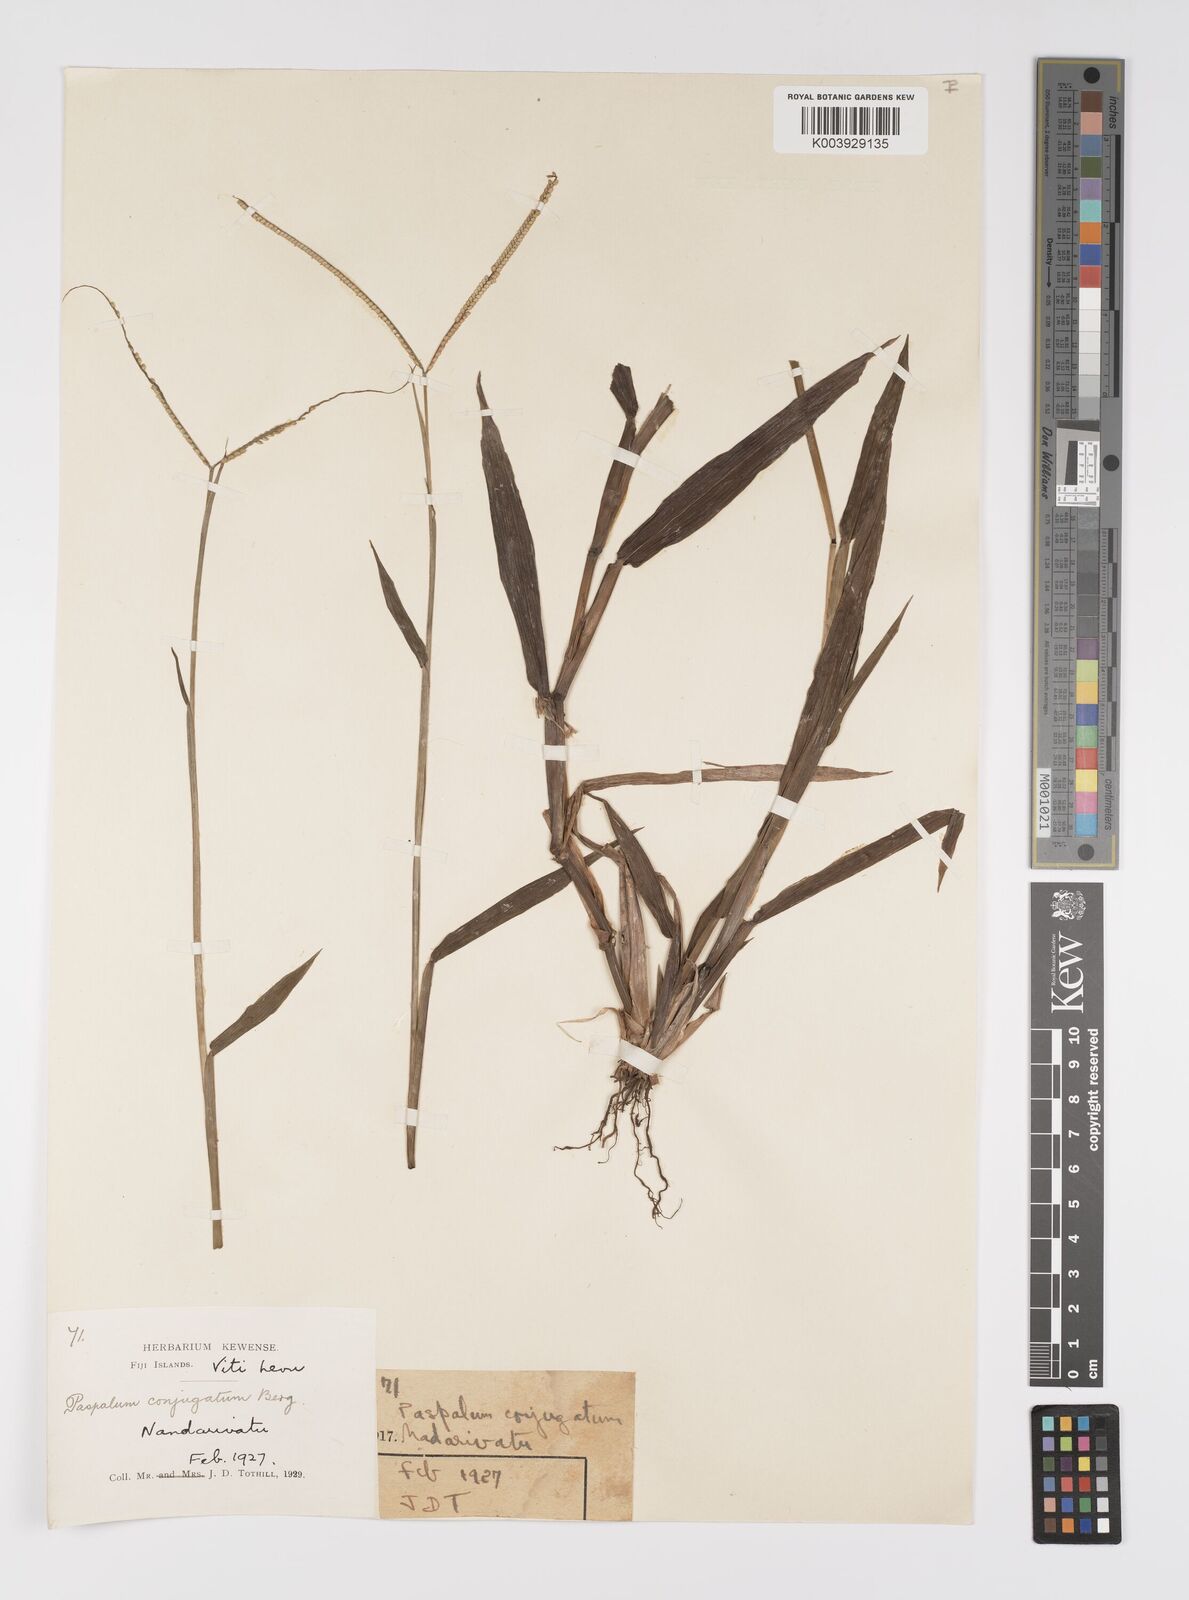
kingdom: Plantae
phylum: Tracheophyta
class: Liliopsida
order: Poales
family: Poaceae
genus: Paspalum
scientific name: Paspalum conjugatum
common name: Hilograss
